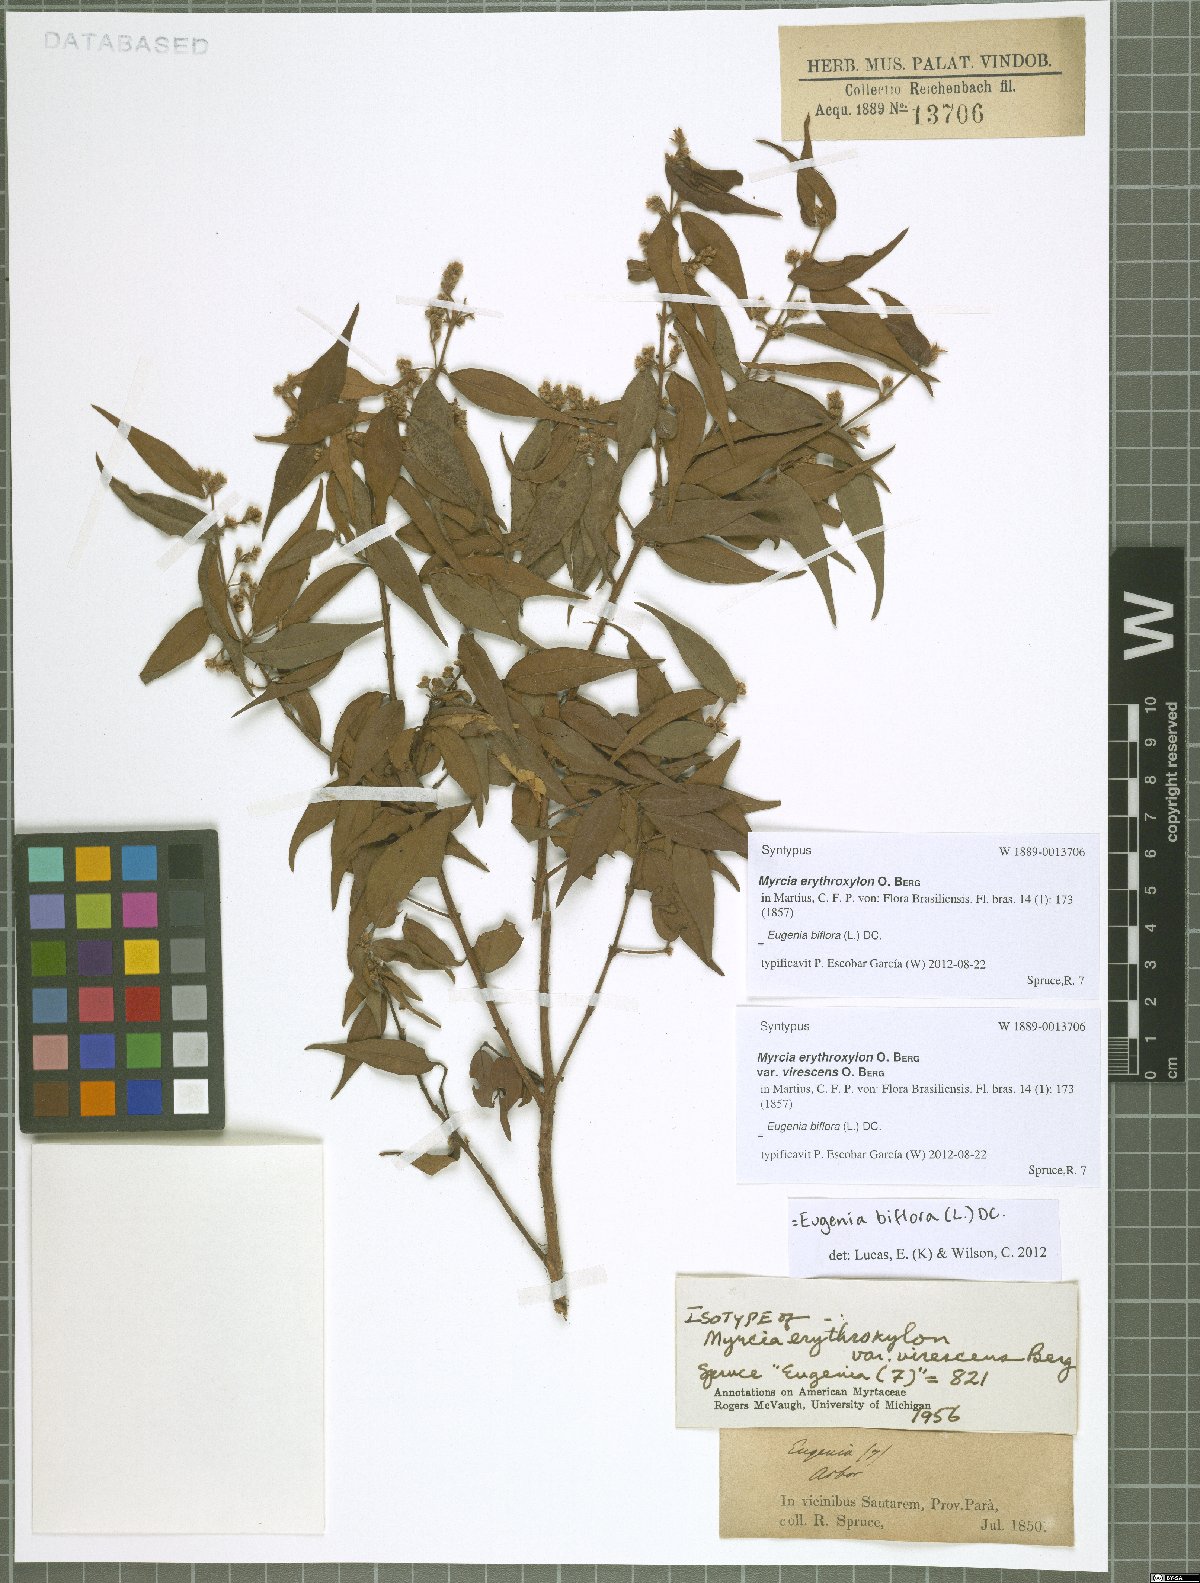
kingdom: Plantae
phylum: Tracheophyta
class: Magnoliopsida
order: Myrtales
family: Myrtaceae
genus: Eugenia
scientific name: Eugenia biflora
